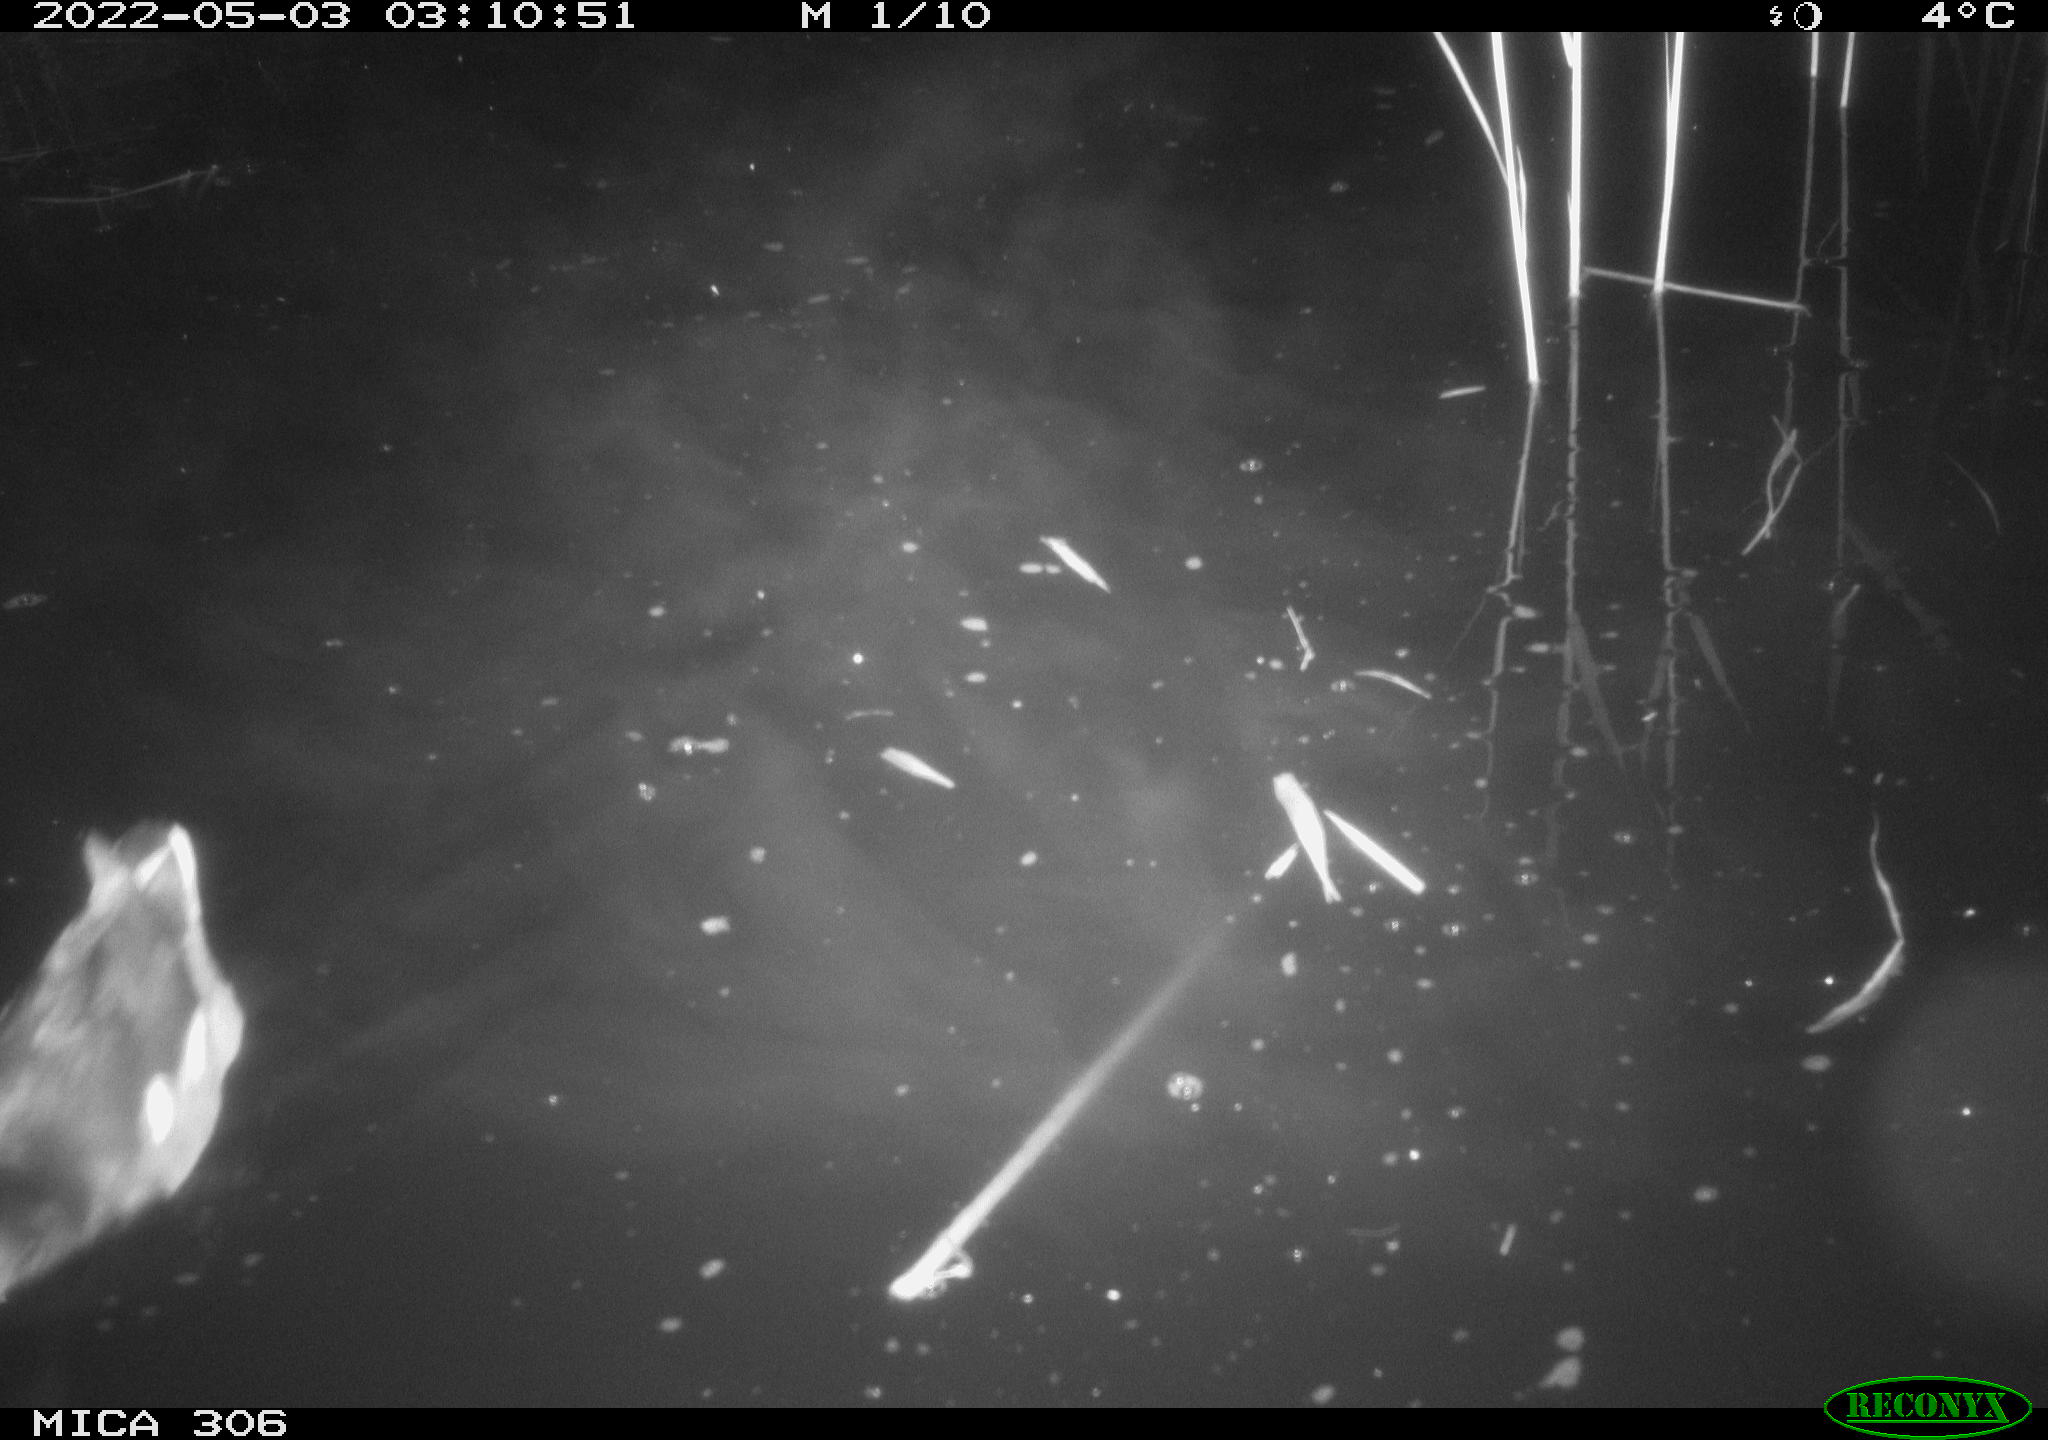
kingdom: Animalia
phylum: Chordata
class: Aves
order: Gruiformes
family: Rallidae
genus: Gallinula
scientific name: Gallinula chloropus
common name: Common moorhen
